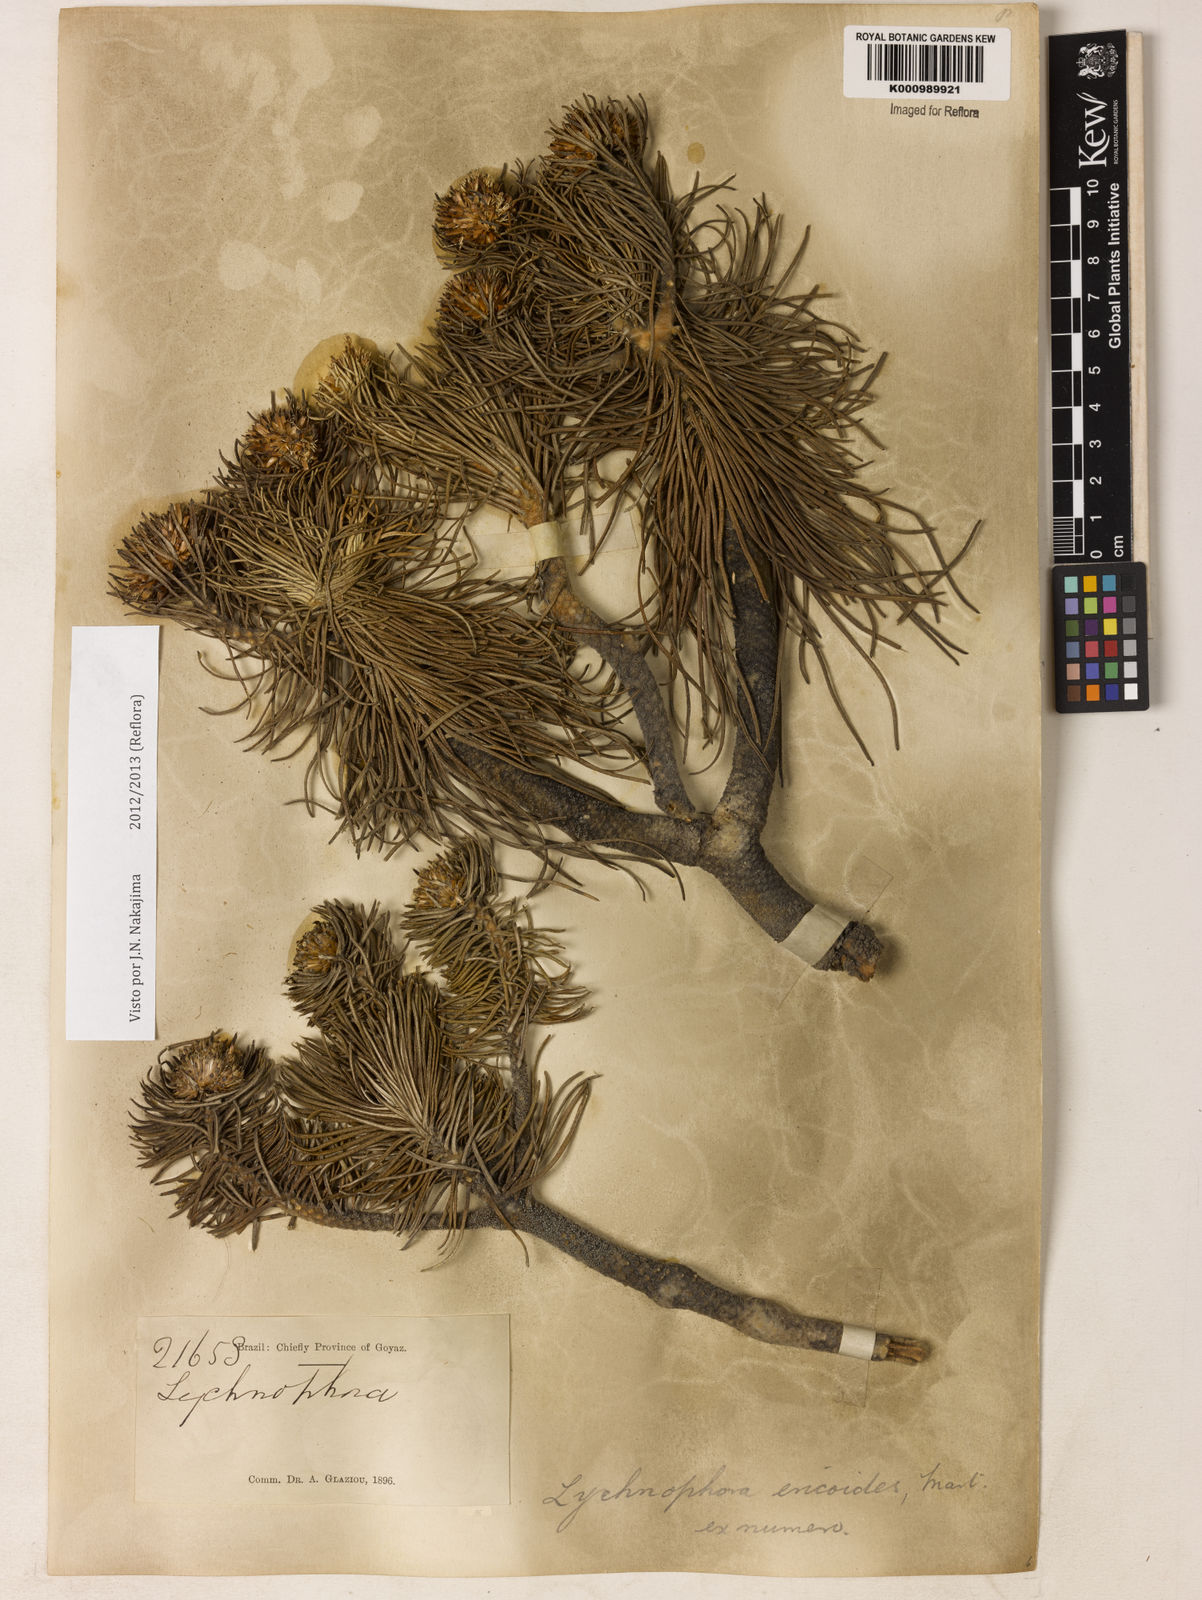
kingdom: Plantae
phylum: Tracheophyta
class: Magnoliopsida
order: Asterales
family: Asteraceae
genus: Lychnophora
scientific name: Lychnophora ericoides
